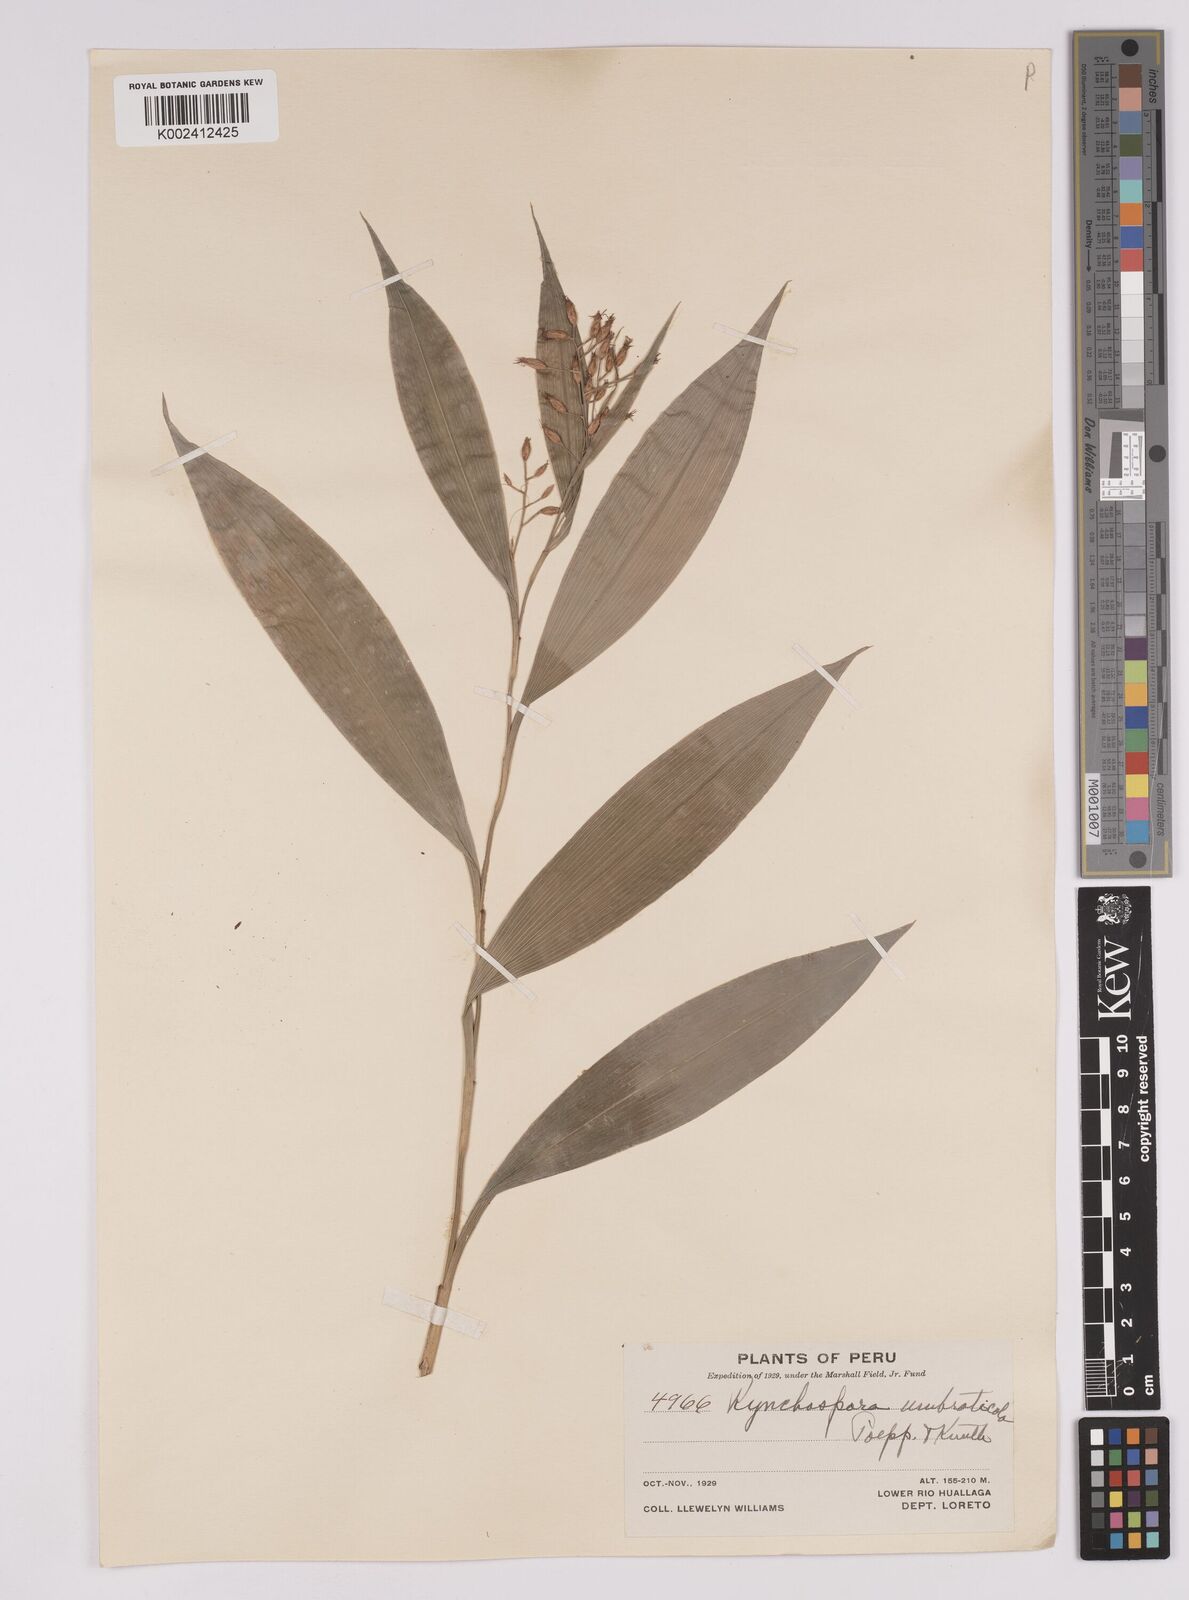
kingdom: Plantae
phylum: Tracheophyta
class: Liliopsida
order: Poales
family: Cyperaceae
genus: Rhynchospora
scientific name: Rhynchospora umbraticola
